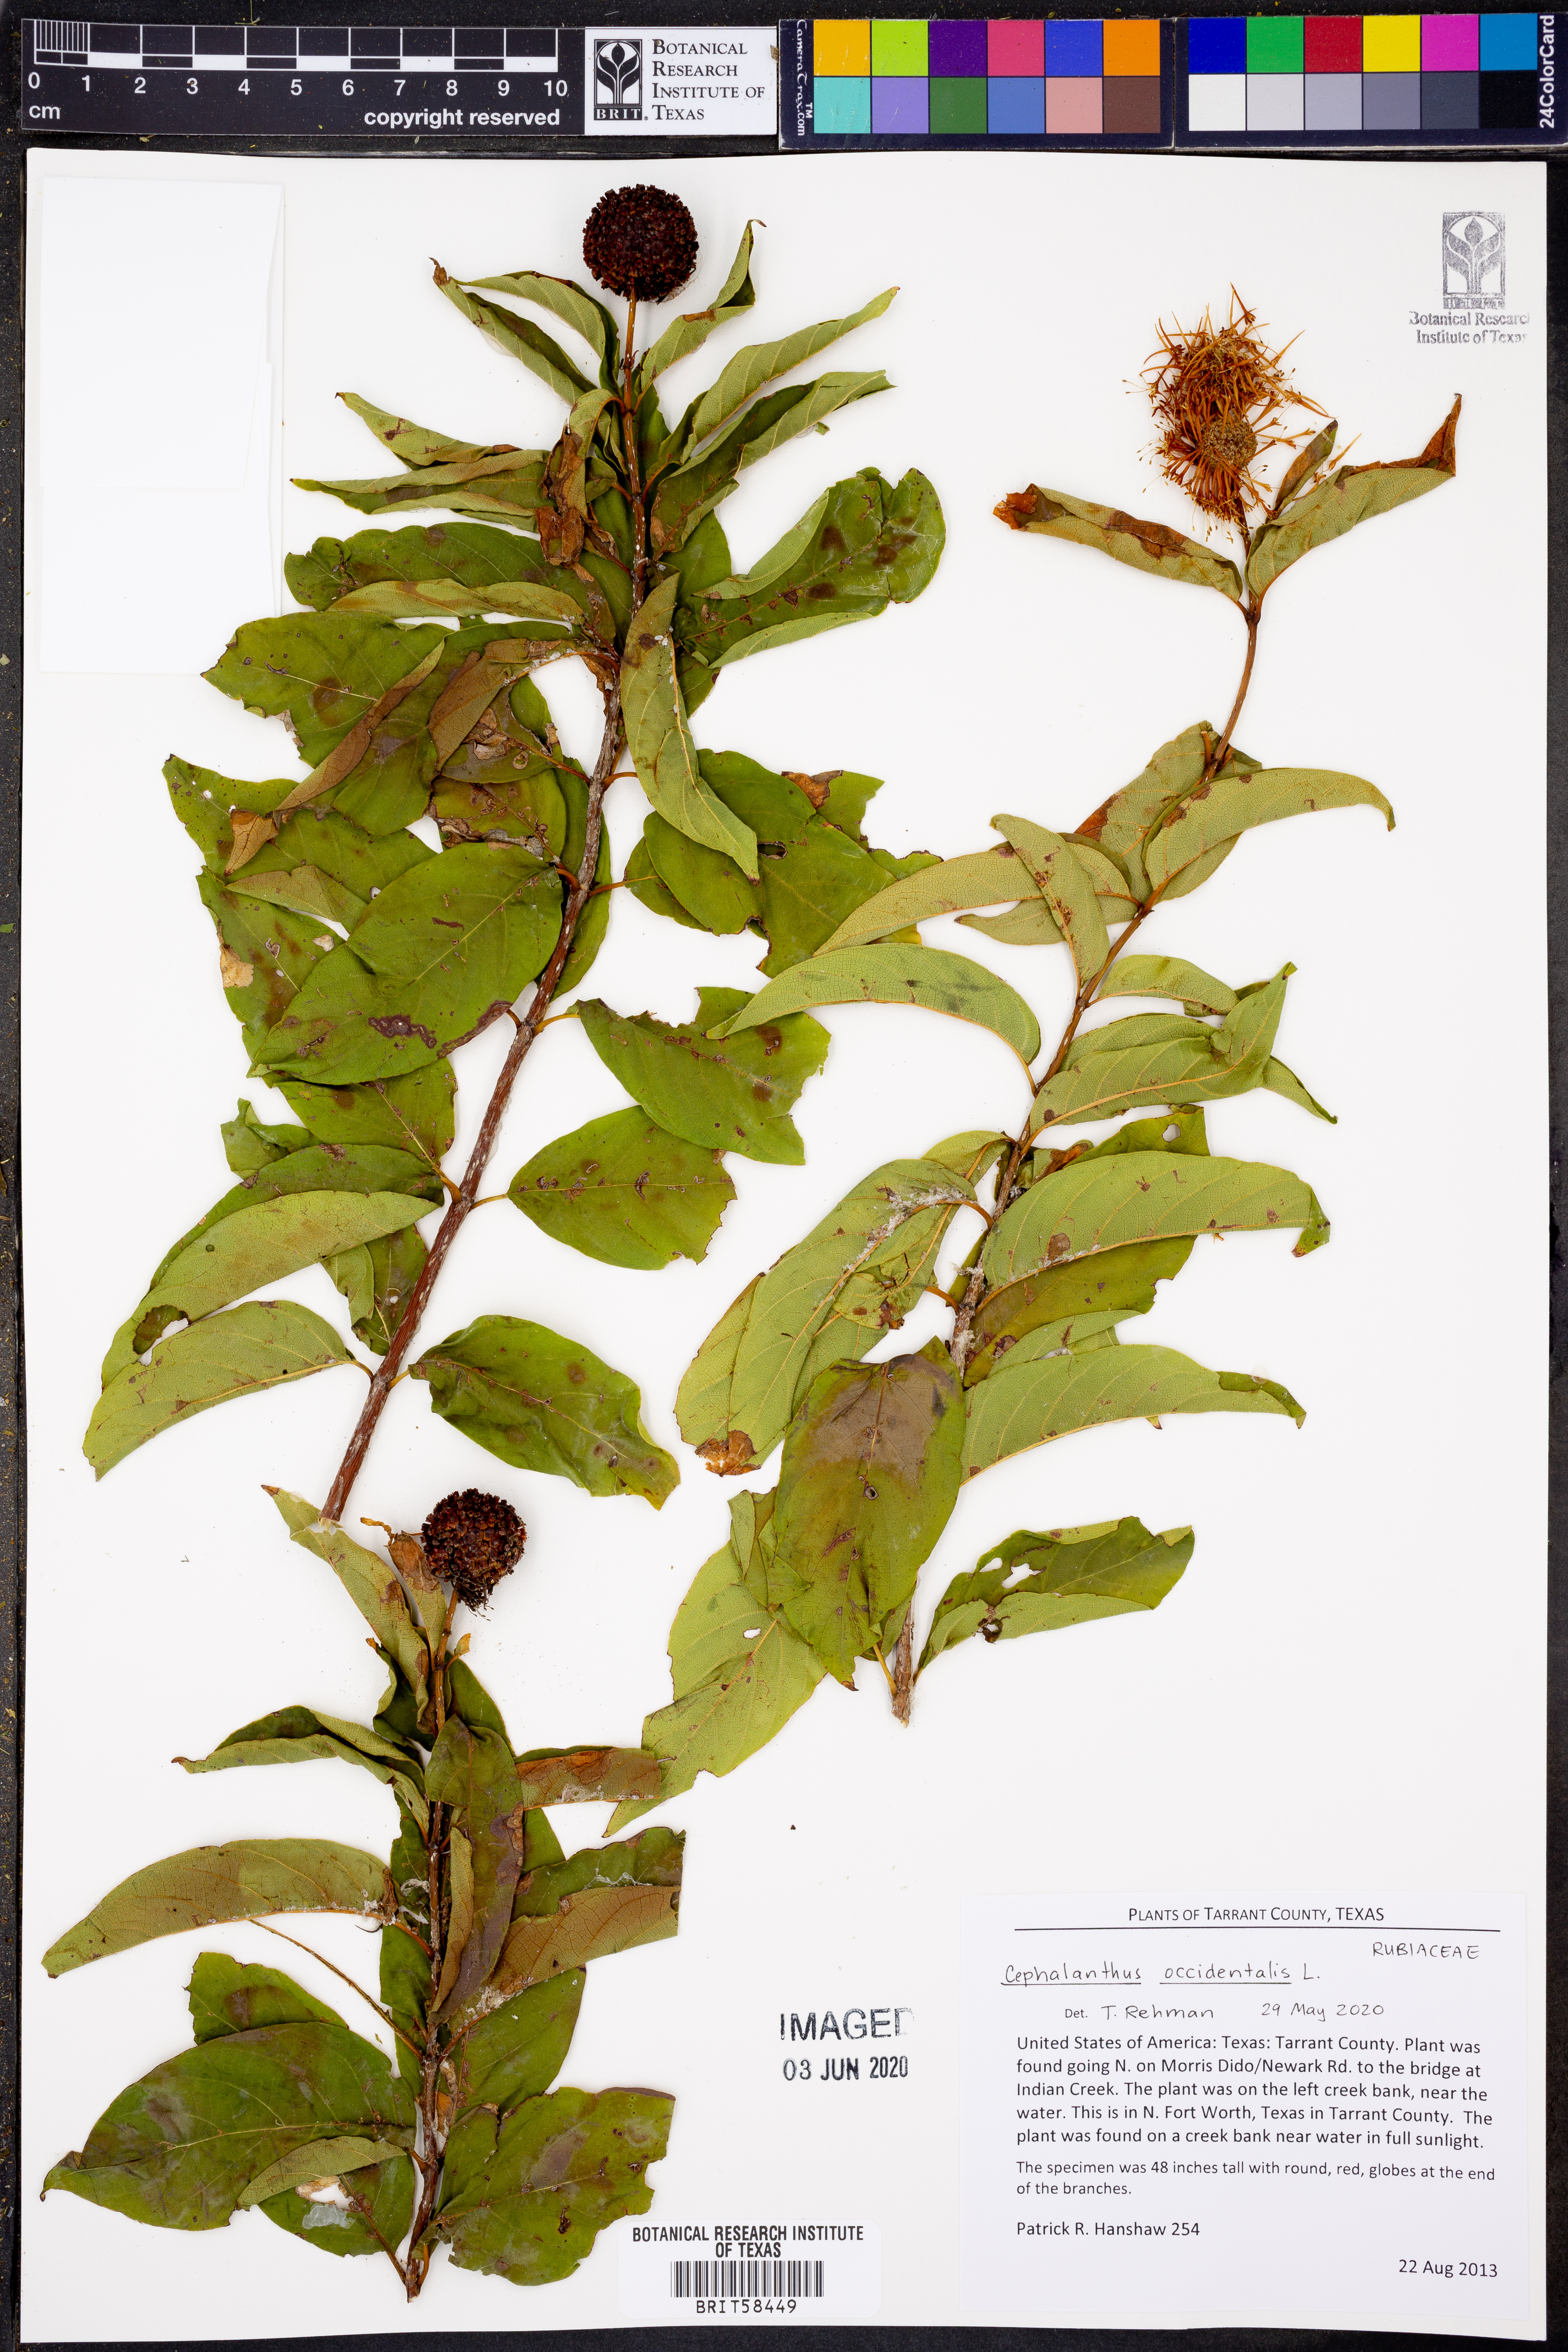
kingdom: Plantae
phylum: Tracheophyta
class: Magnoliopsida
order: Gentianales
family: Rubiaceae
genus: Cephalanthus
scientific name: Cephalanthus occidentalis
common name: Button-willow
